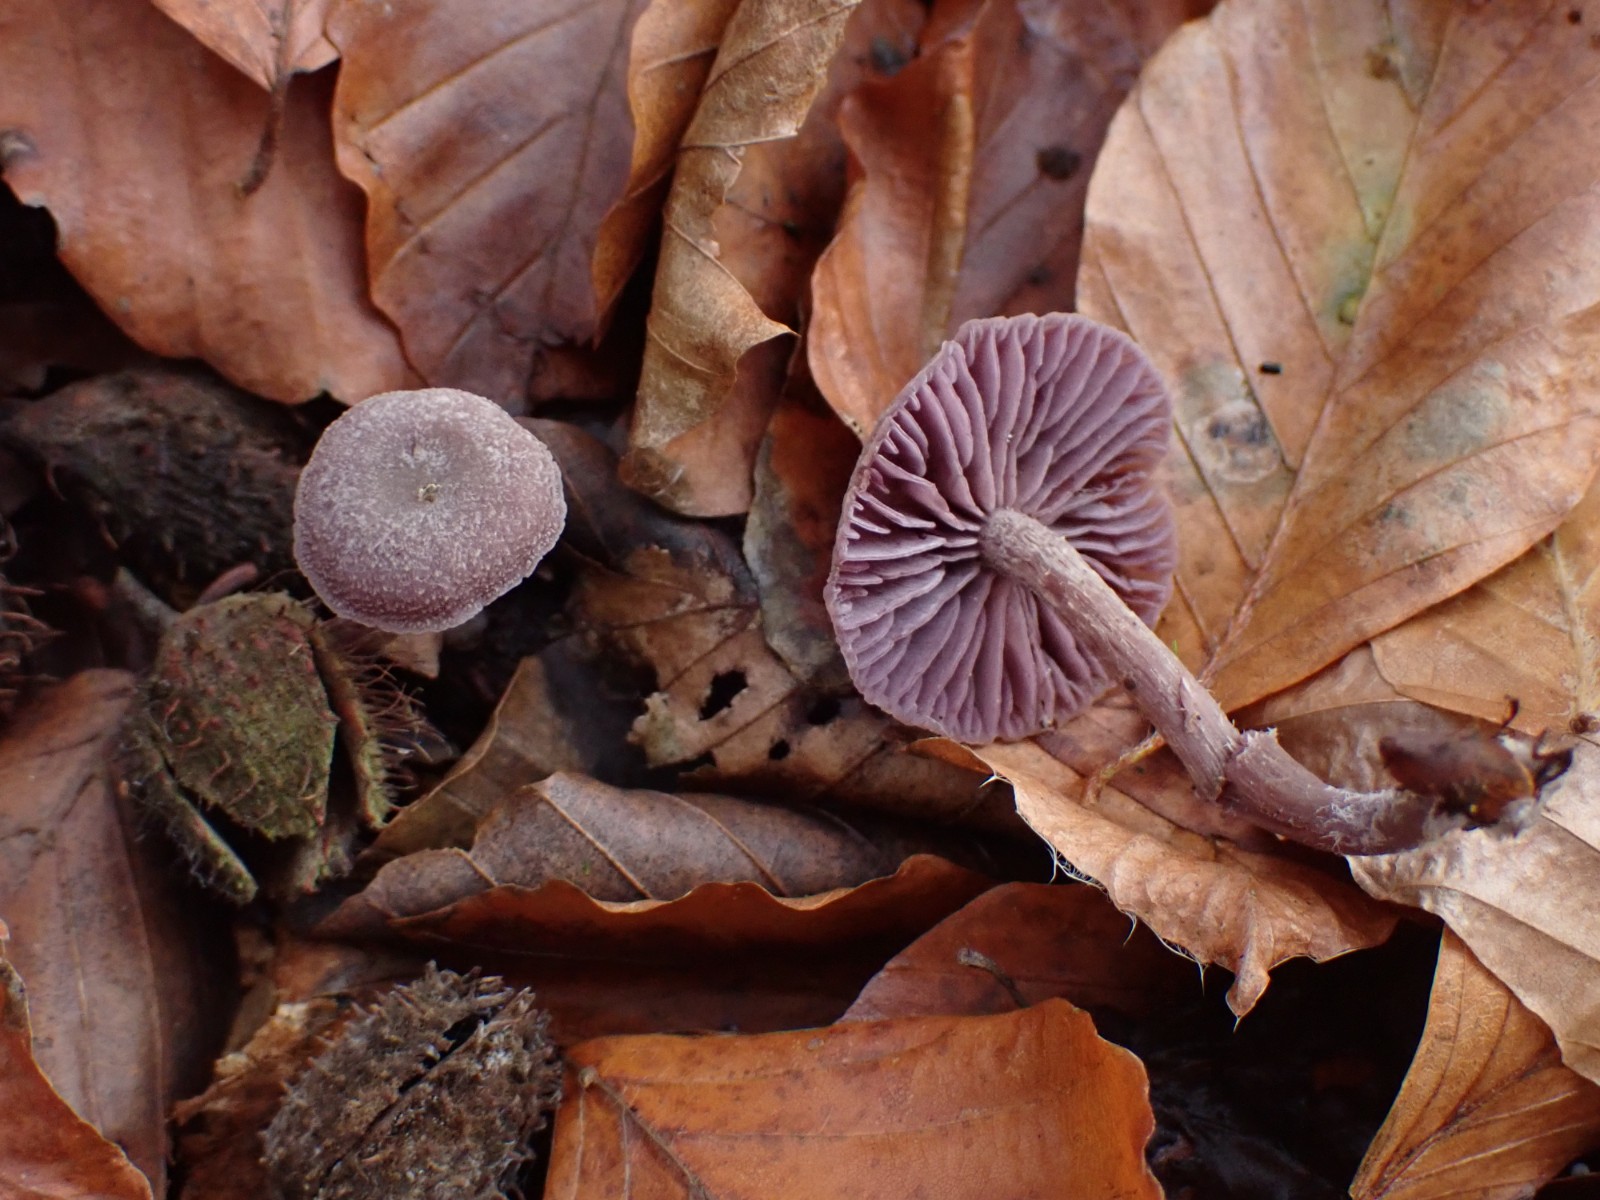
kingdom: Fungi
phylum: Basidiomycota
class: Agaricomycetes
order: Agaricales
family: Hydnangiaceae
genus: Laccaria
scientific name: Laccaria amethystina
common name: violet ametysthat
